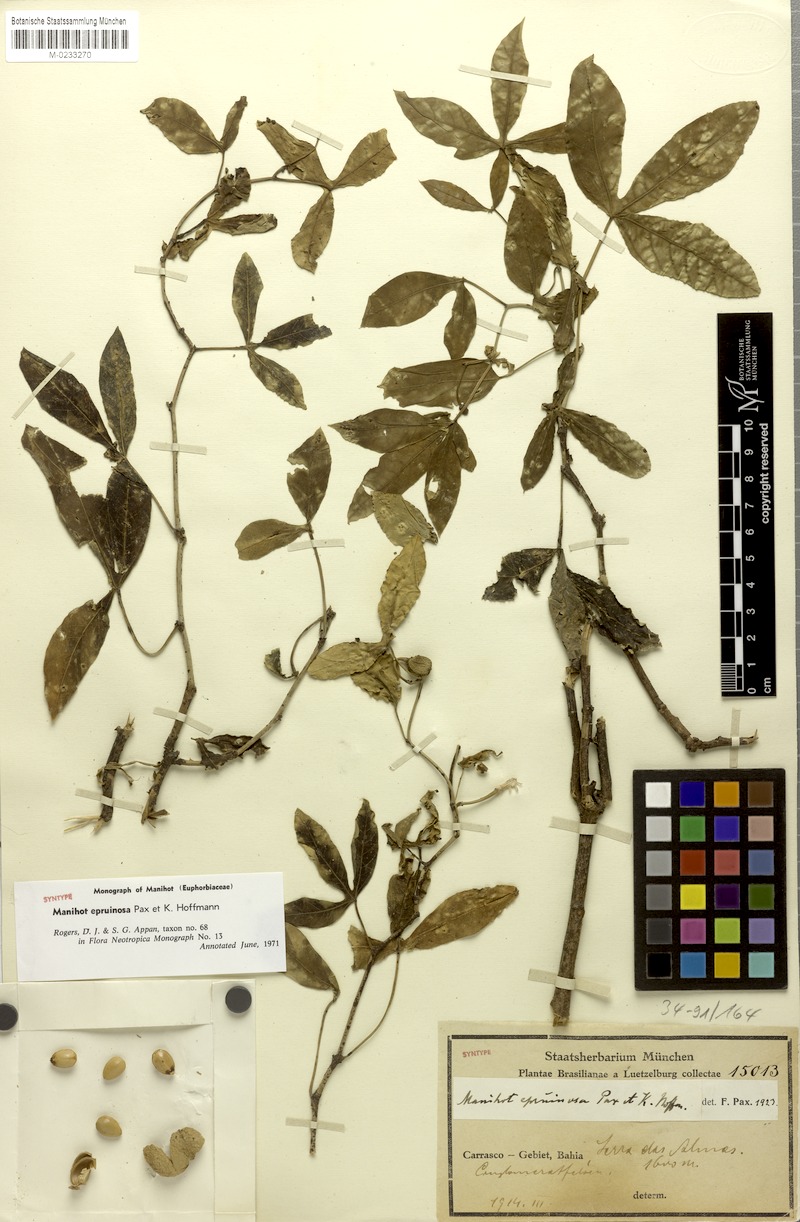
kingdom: Plantae
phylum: Tracheophyta
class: Magnoliopsida
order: Malpighiales
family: Euphorbiaceae
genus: Manihot
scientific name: Manihot epruinosa
